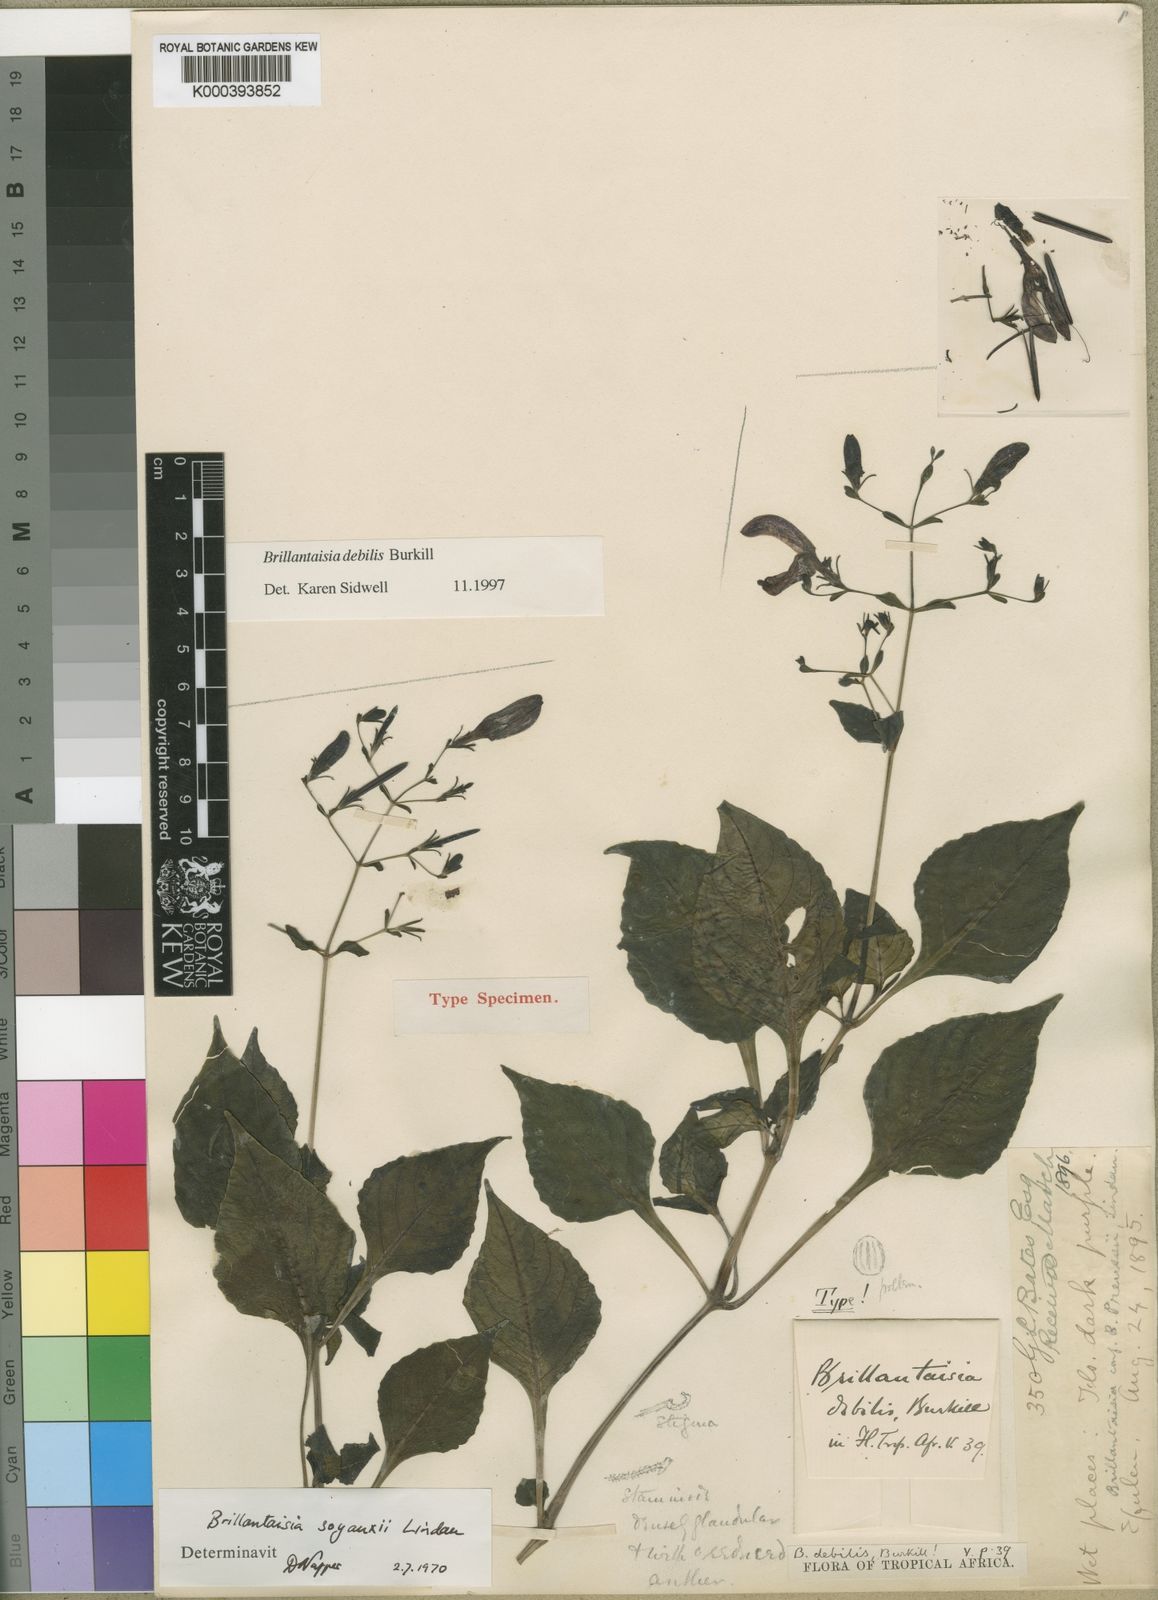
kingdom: Plantae
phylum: Tracheophyta
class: Magnoliopsida
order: Lamiales
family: Acanthaceae
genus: Brillantaisia
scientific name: Brillantaisia soyauxii
